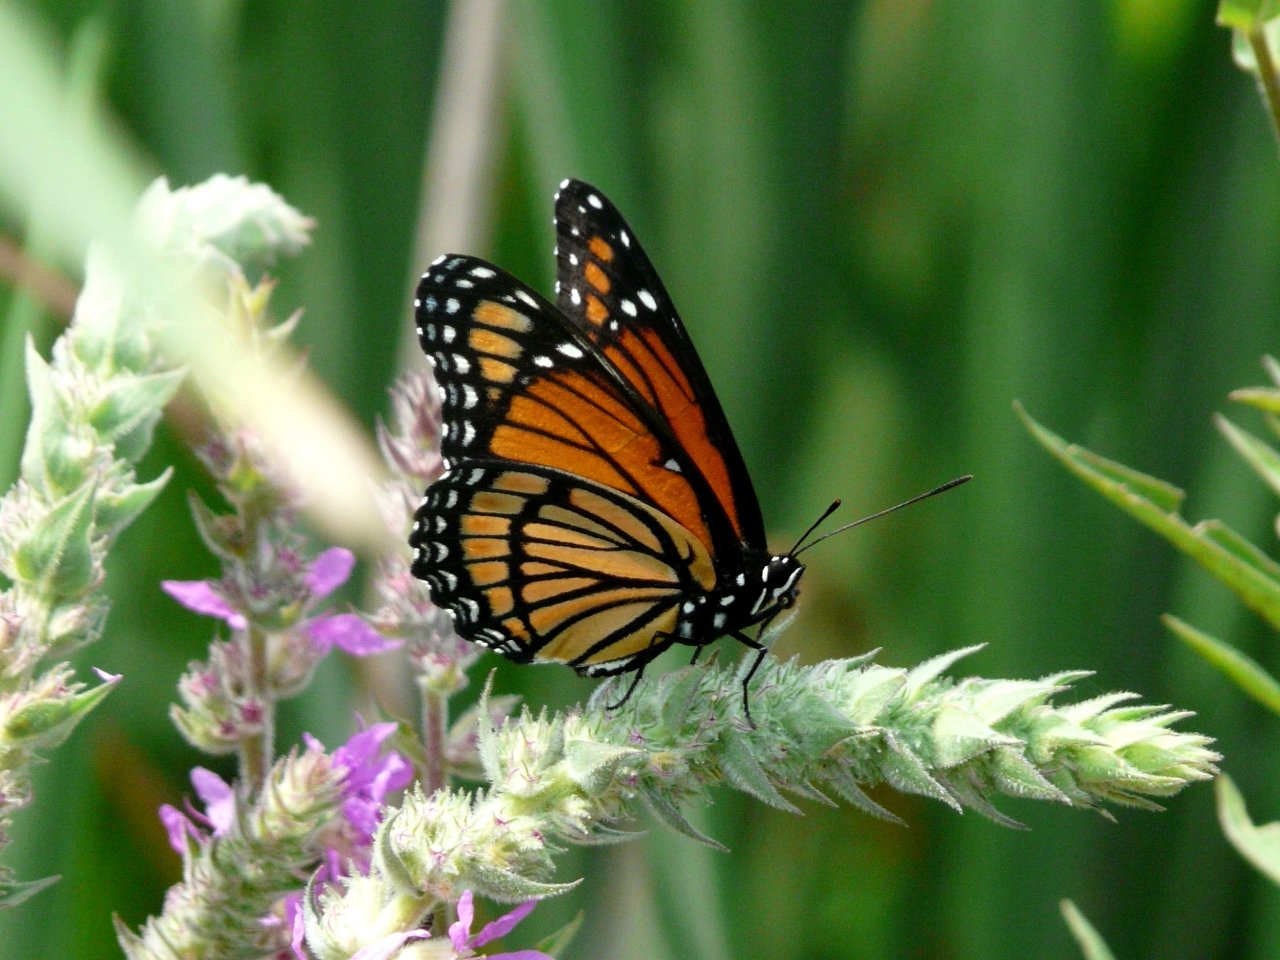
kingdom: Animalia
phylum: Arthropoda
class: Insecta
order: Lepidoptera
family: Nymphalidae
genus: Limenitis
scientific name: Limenitis archippus
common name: Viceroy
